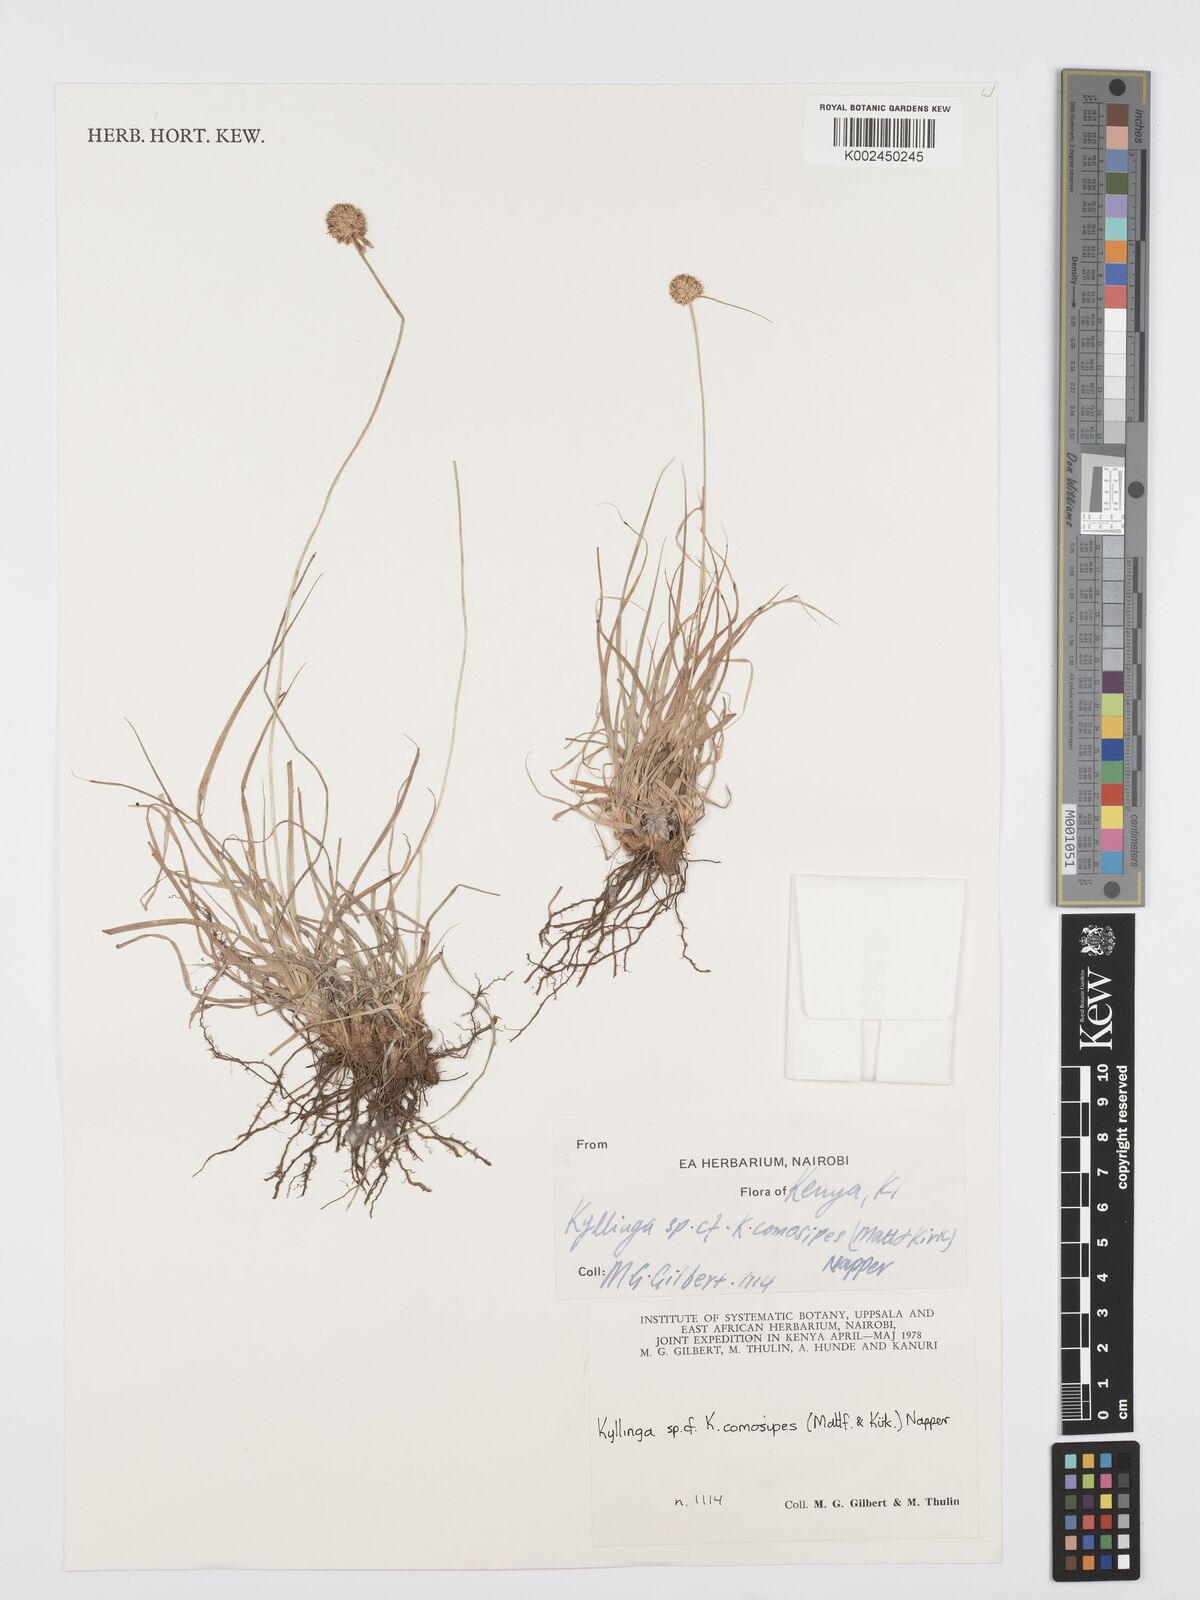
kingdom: Plantae
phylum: Tracheophyta
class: Liliopsida
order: Poales
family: Cyperaceae
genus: Cyperus
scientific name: Cyperus
